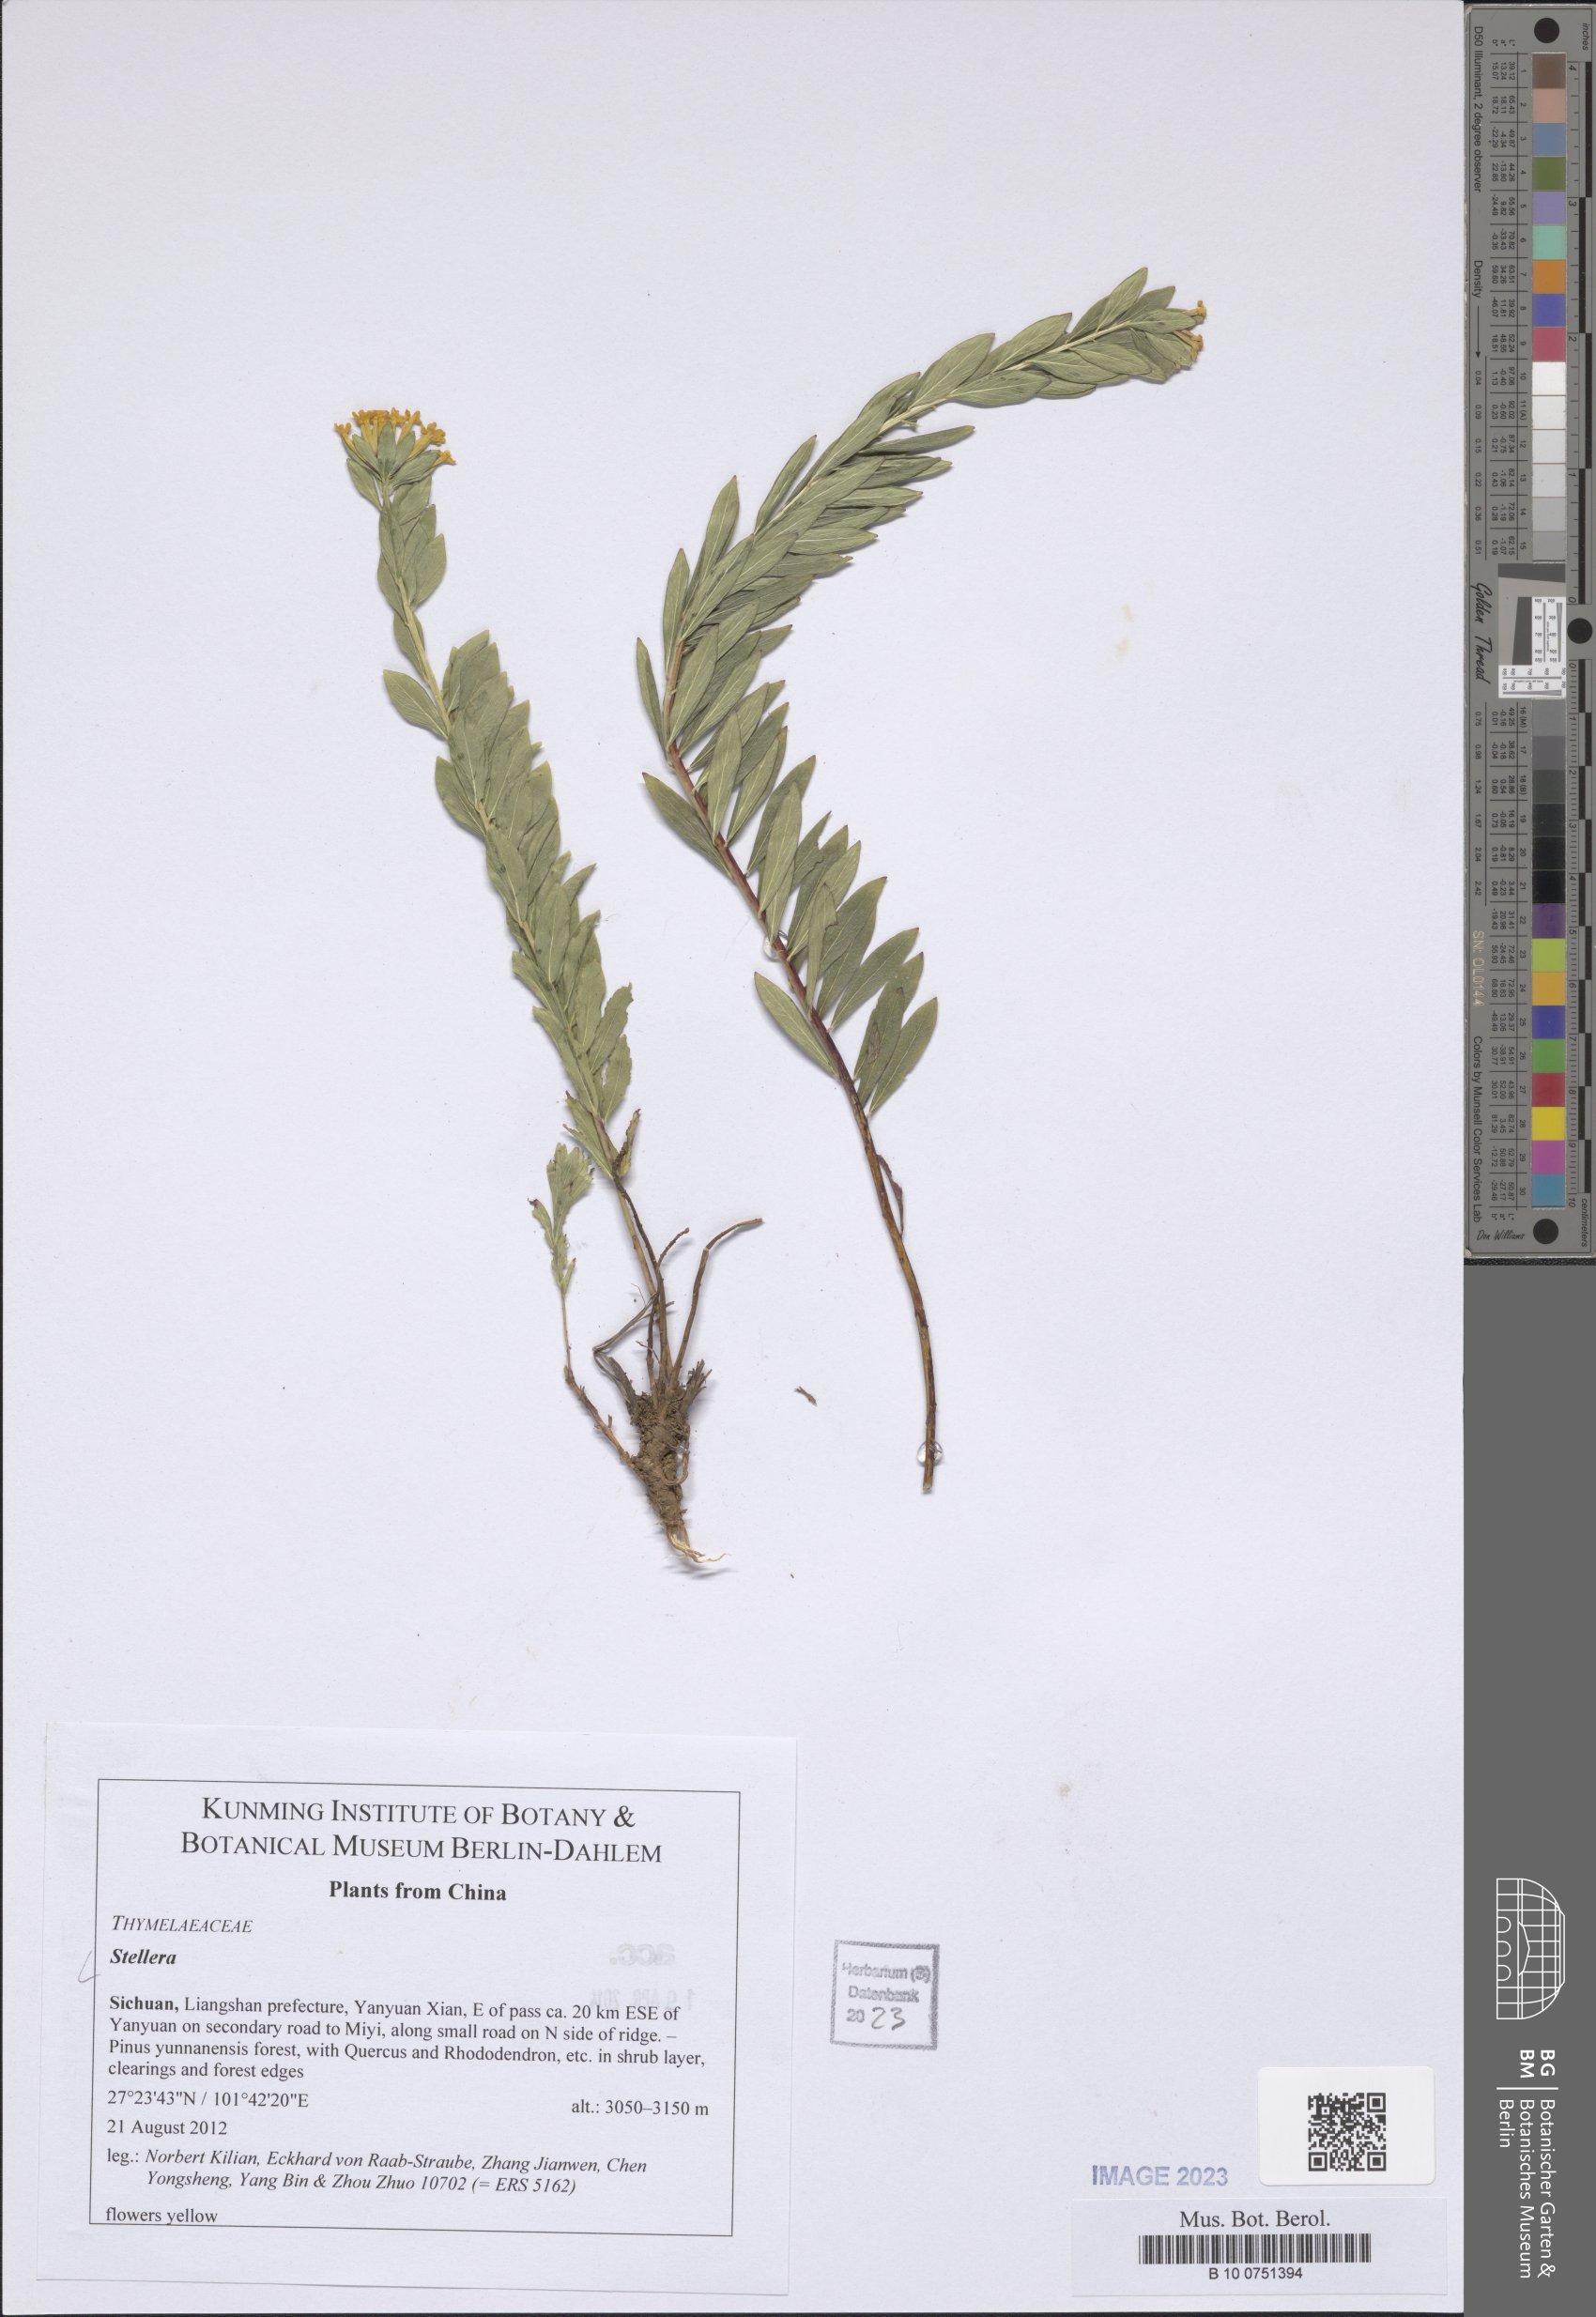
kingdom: Plantae
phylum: Tracheophyta
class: Magnoliopsida
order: Malvales
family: Thymelaeaceae
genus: Stellera
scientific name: Stellera
